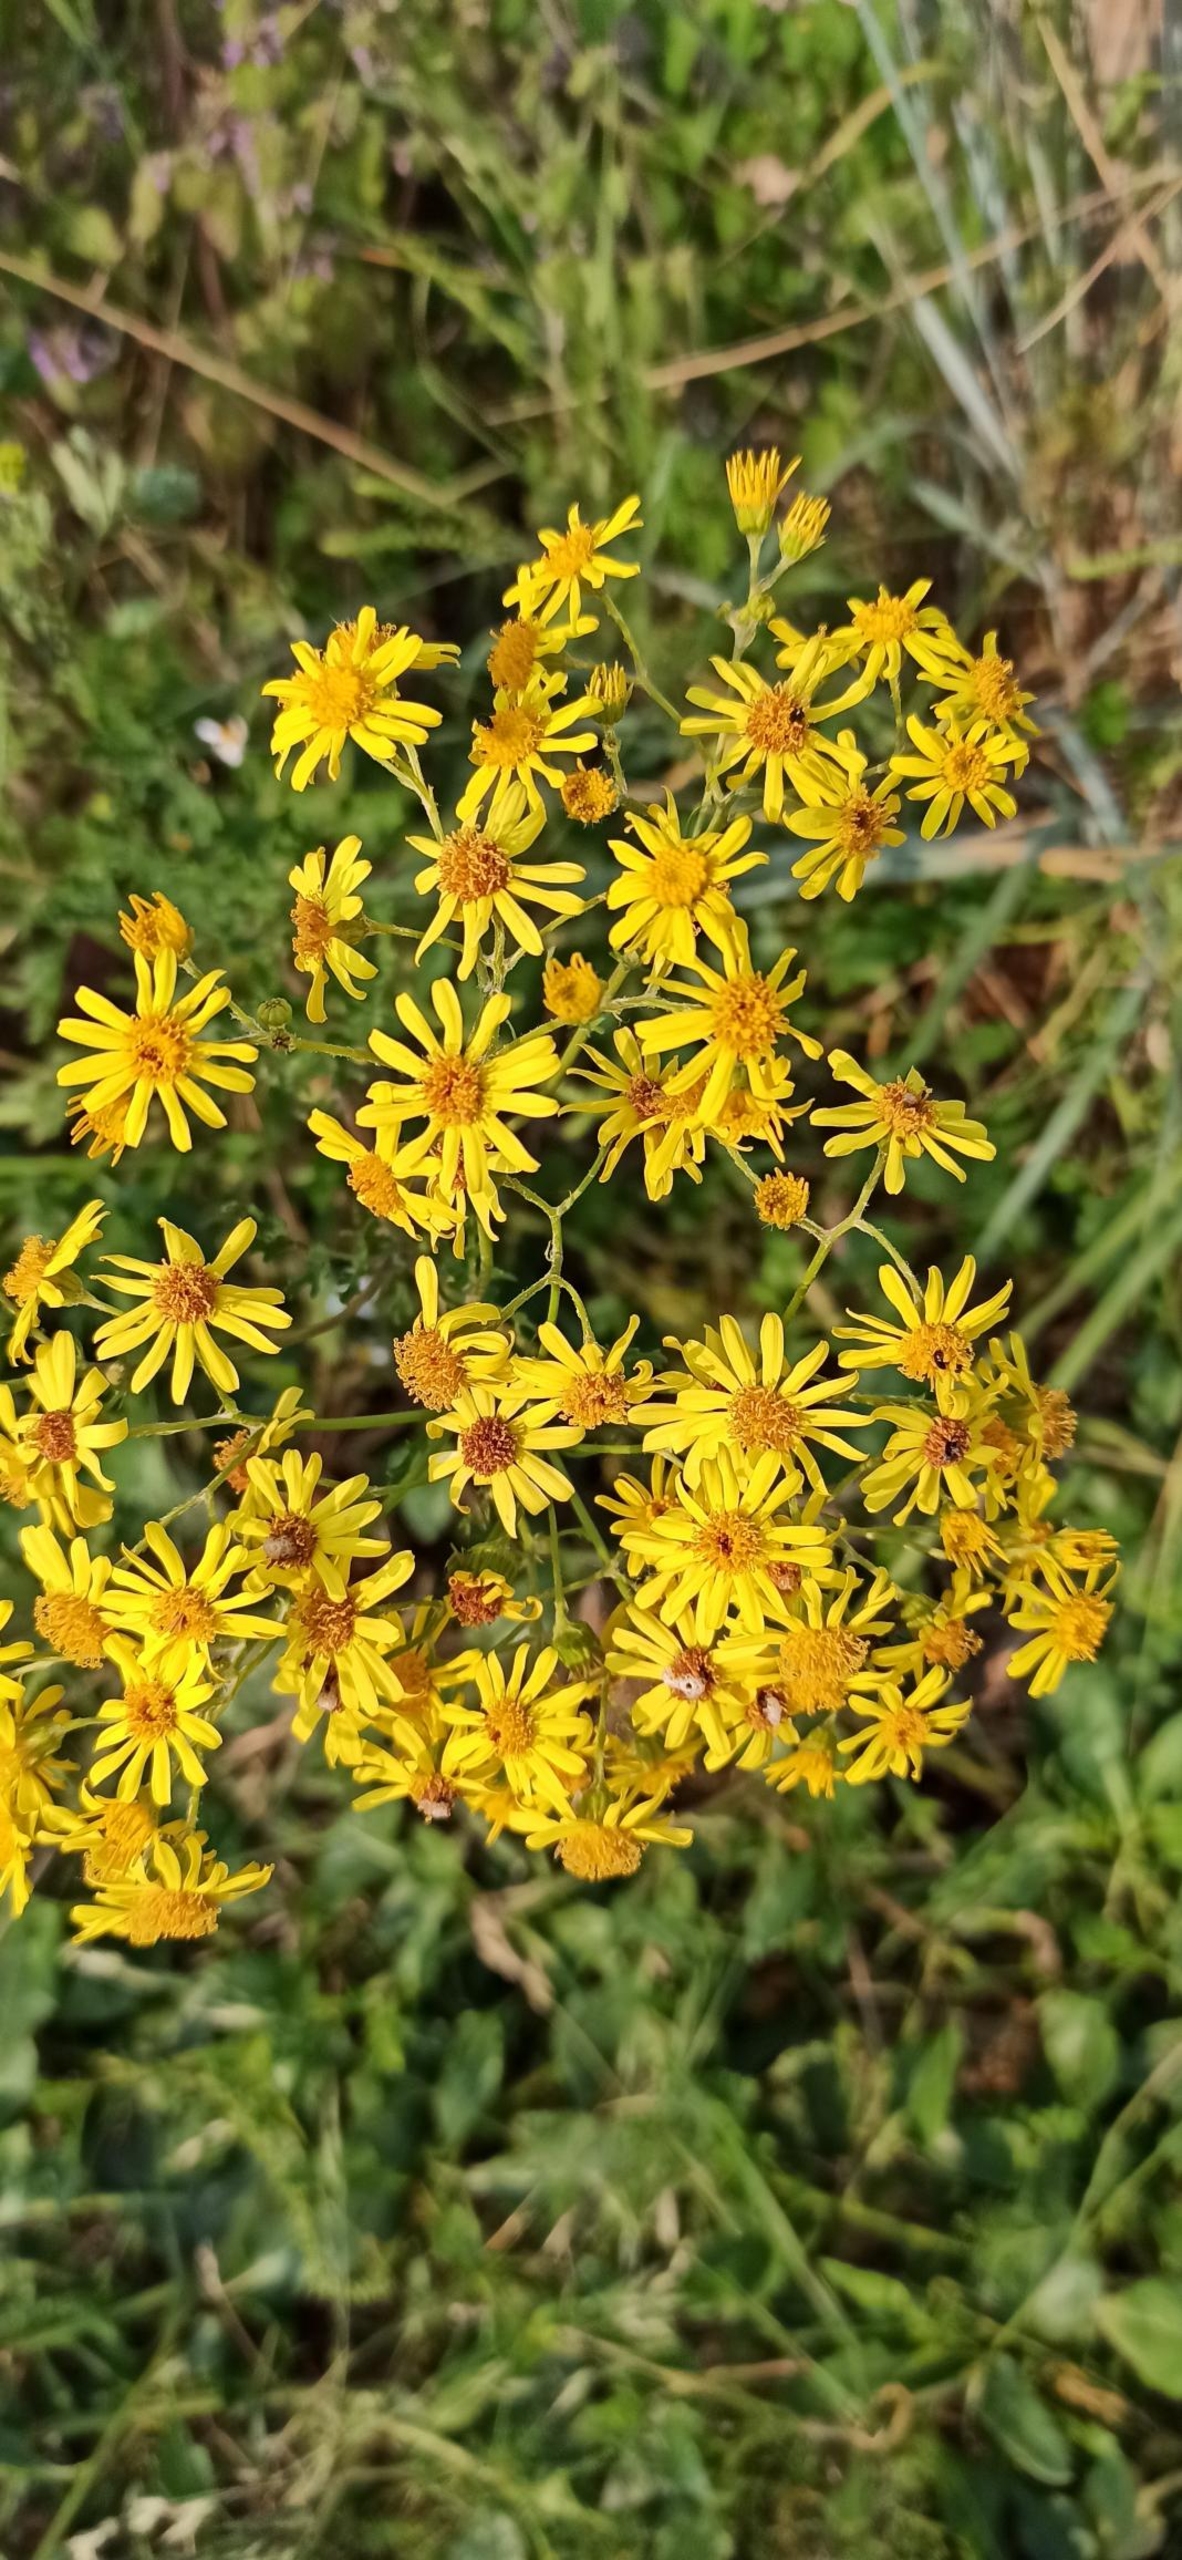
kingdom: Plantae
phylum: Tracheophyta
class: Magnoliopsida
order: Asterales
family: Asteraceae
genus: Jacobaea
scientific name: Jacobaea vulgaris
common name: Eng-brandbæger
